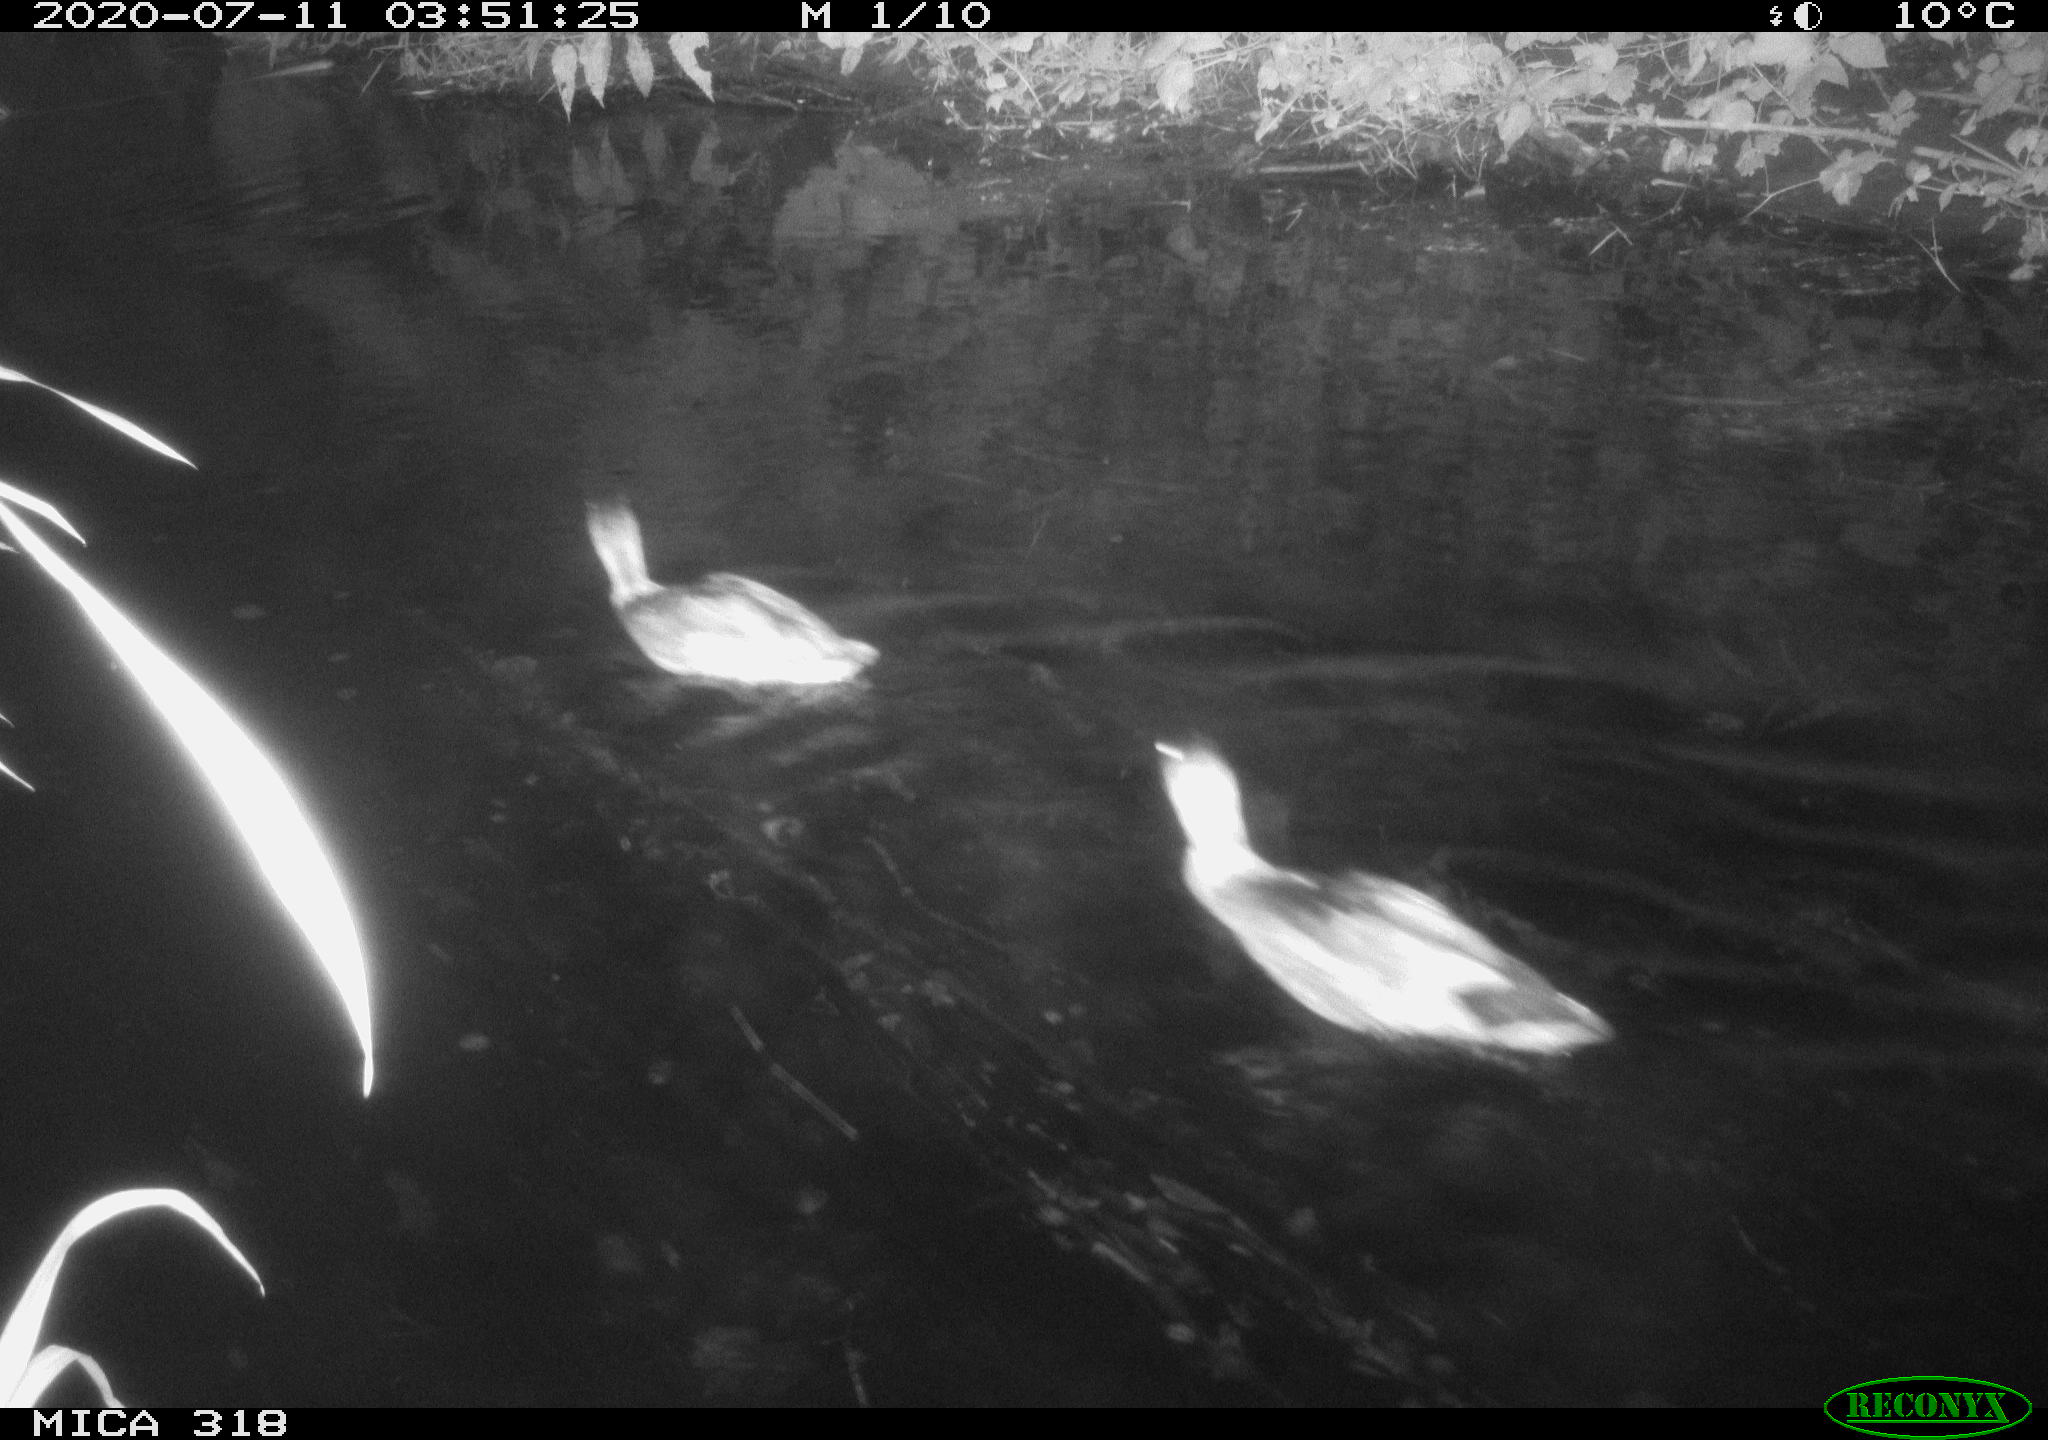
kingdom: Animalia
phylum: Chordata
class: Aves
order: Anseriformes
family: Anatidae
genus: Mareca
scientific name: Mareca strepera
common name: Gadwall
